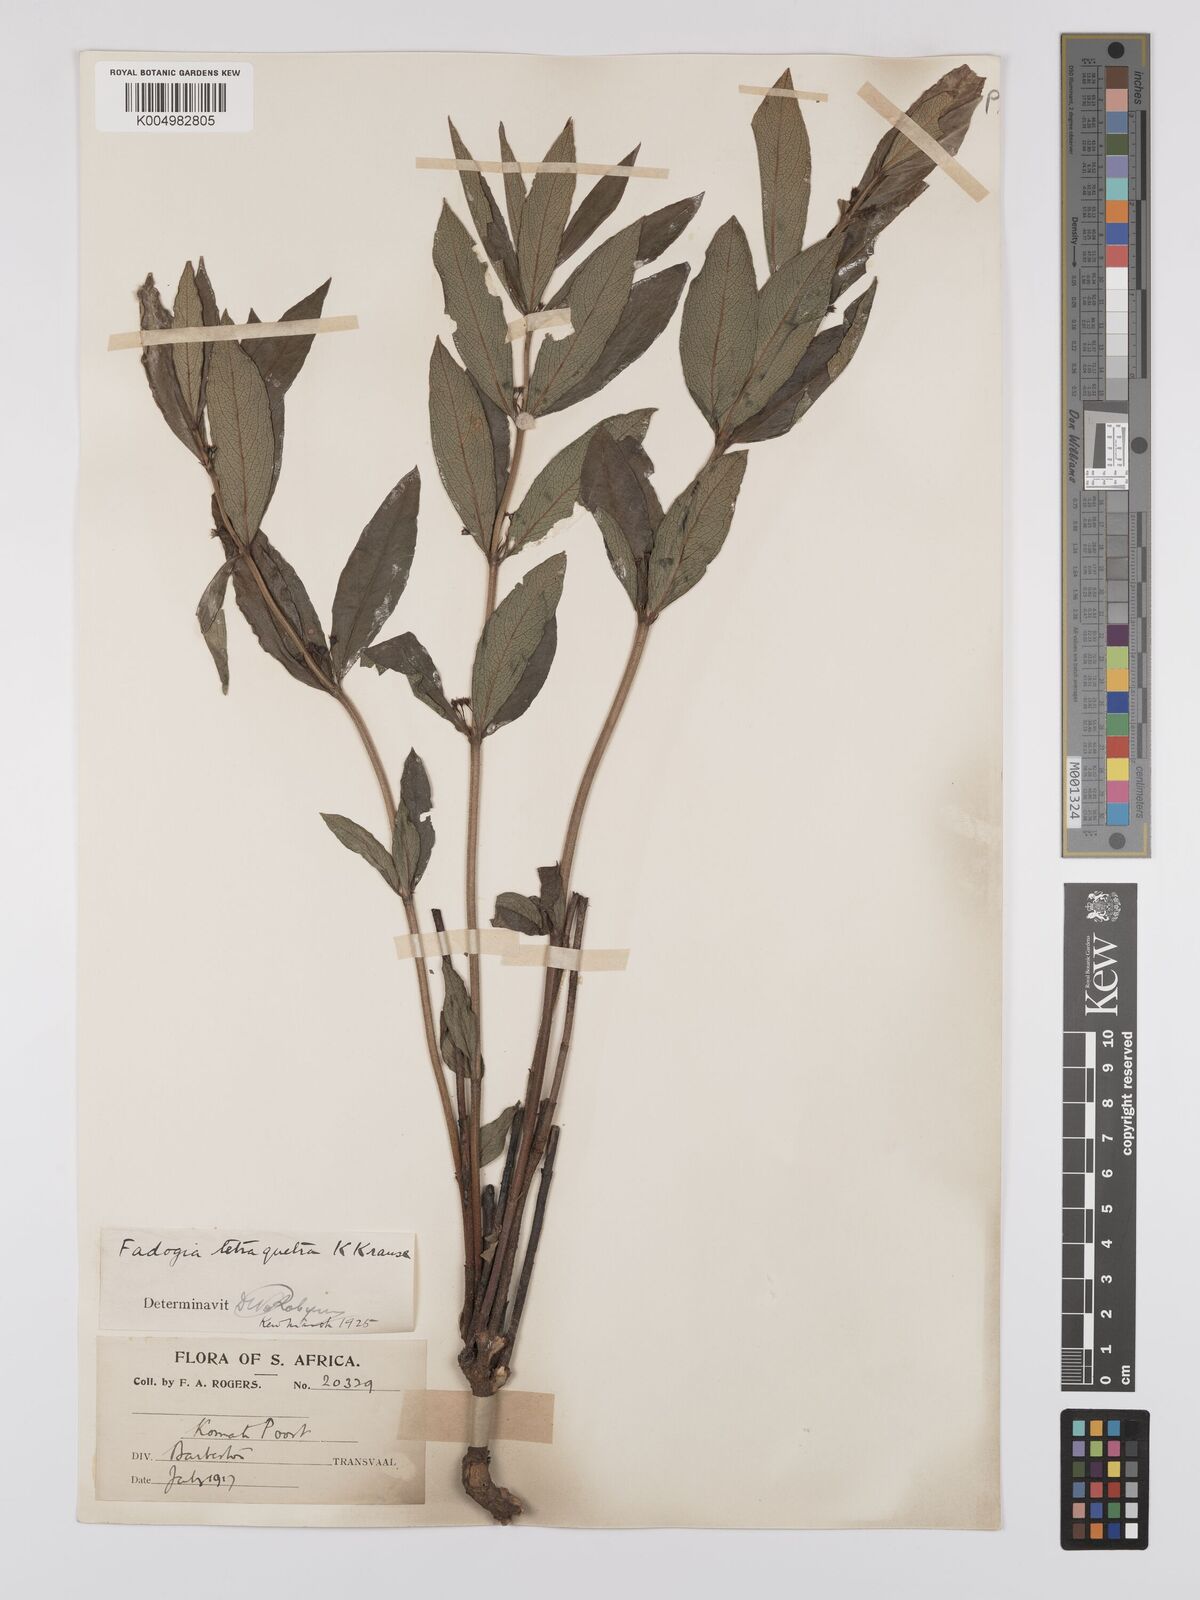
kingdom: Plantae
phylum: Tracheophyta
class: Magnoliopsida
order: Gentianales
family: Rubiaceae
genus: Fadogia
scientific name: Fadogia tetraquetra
